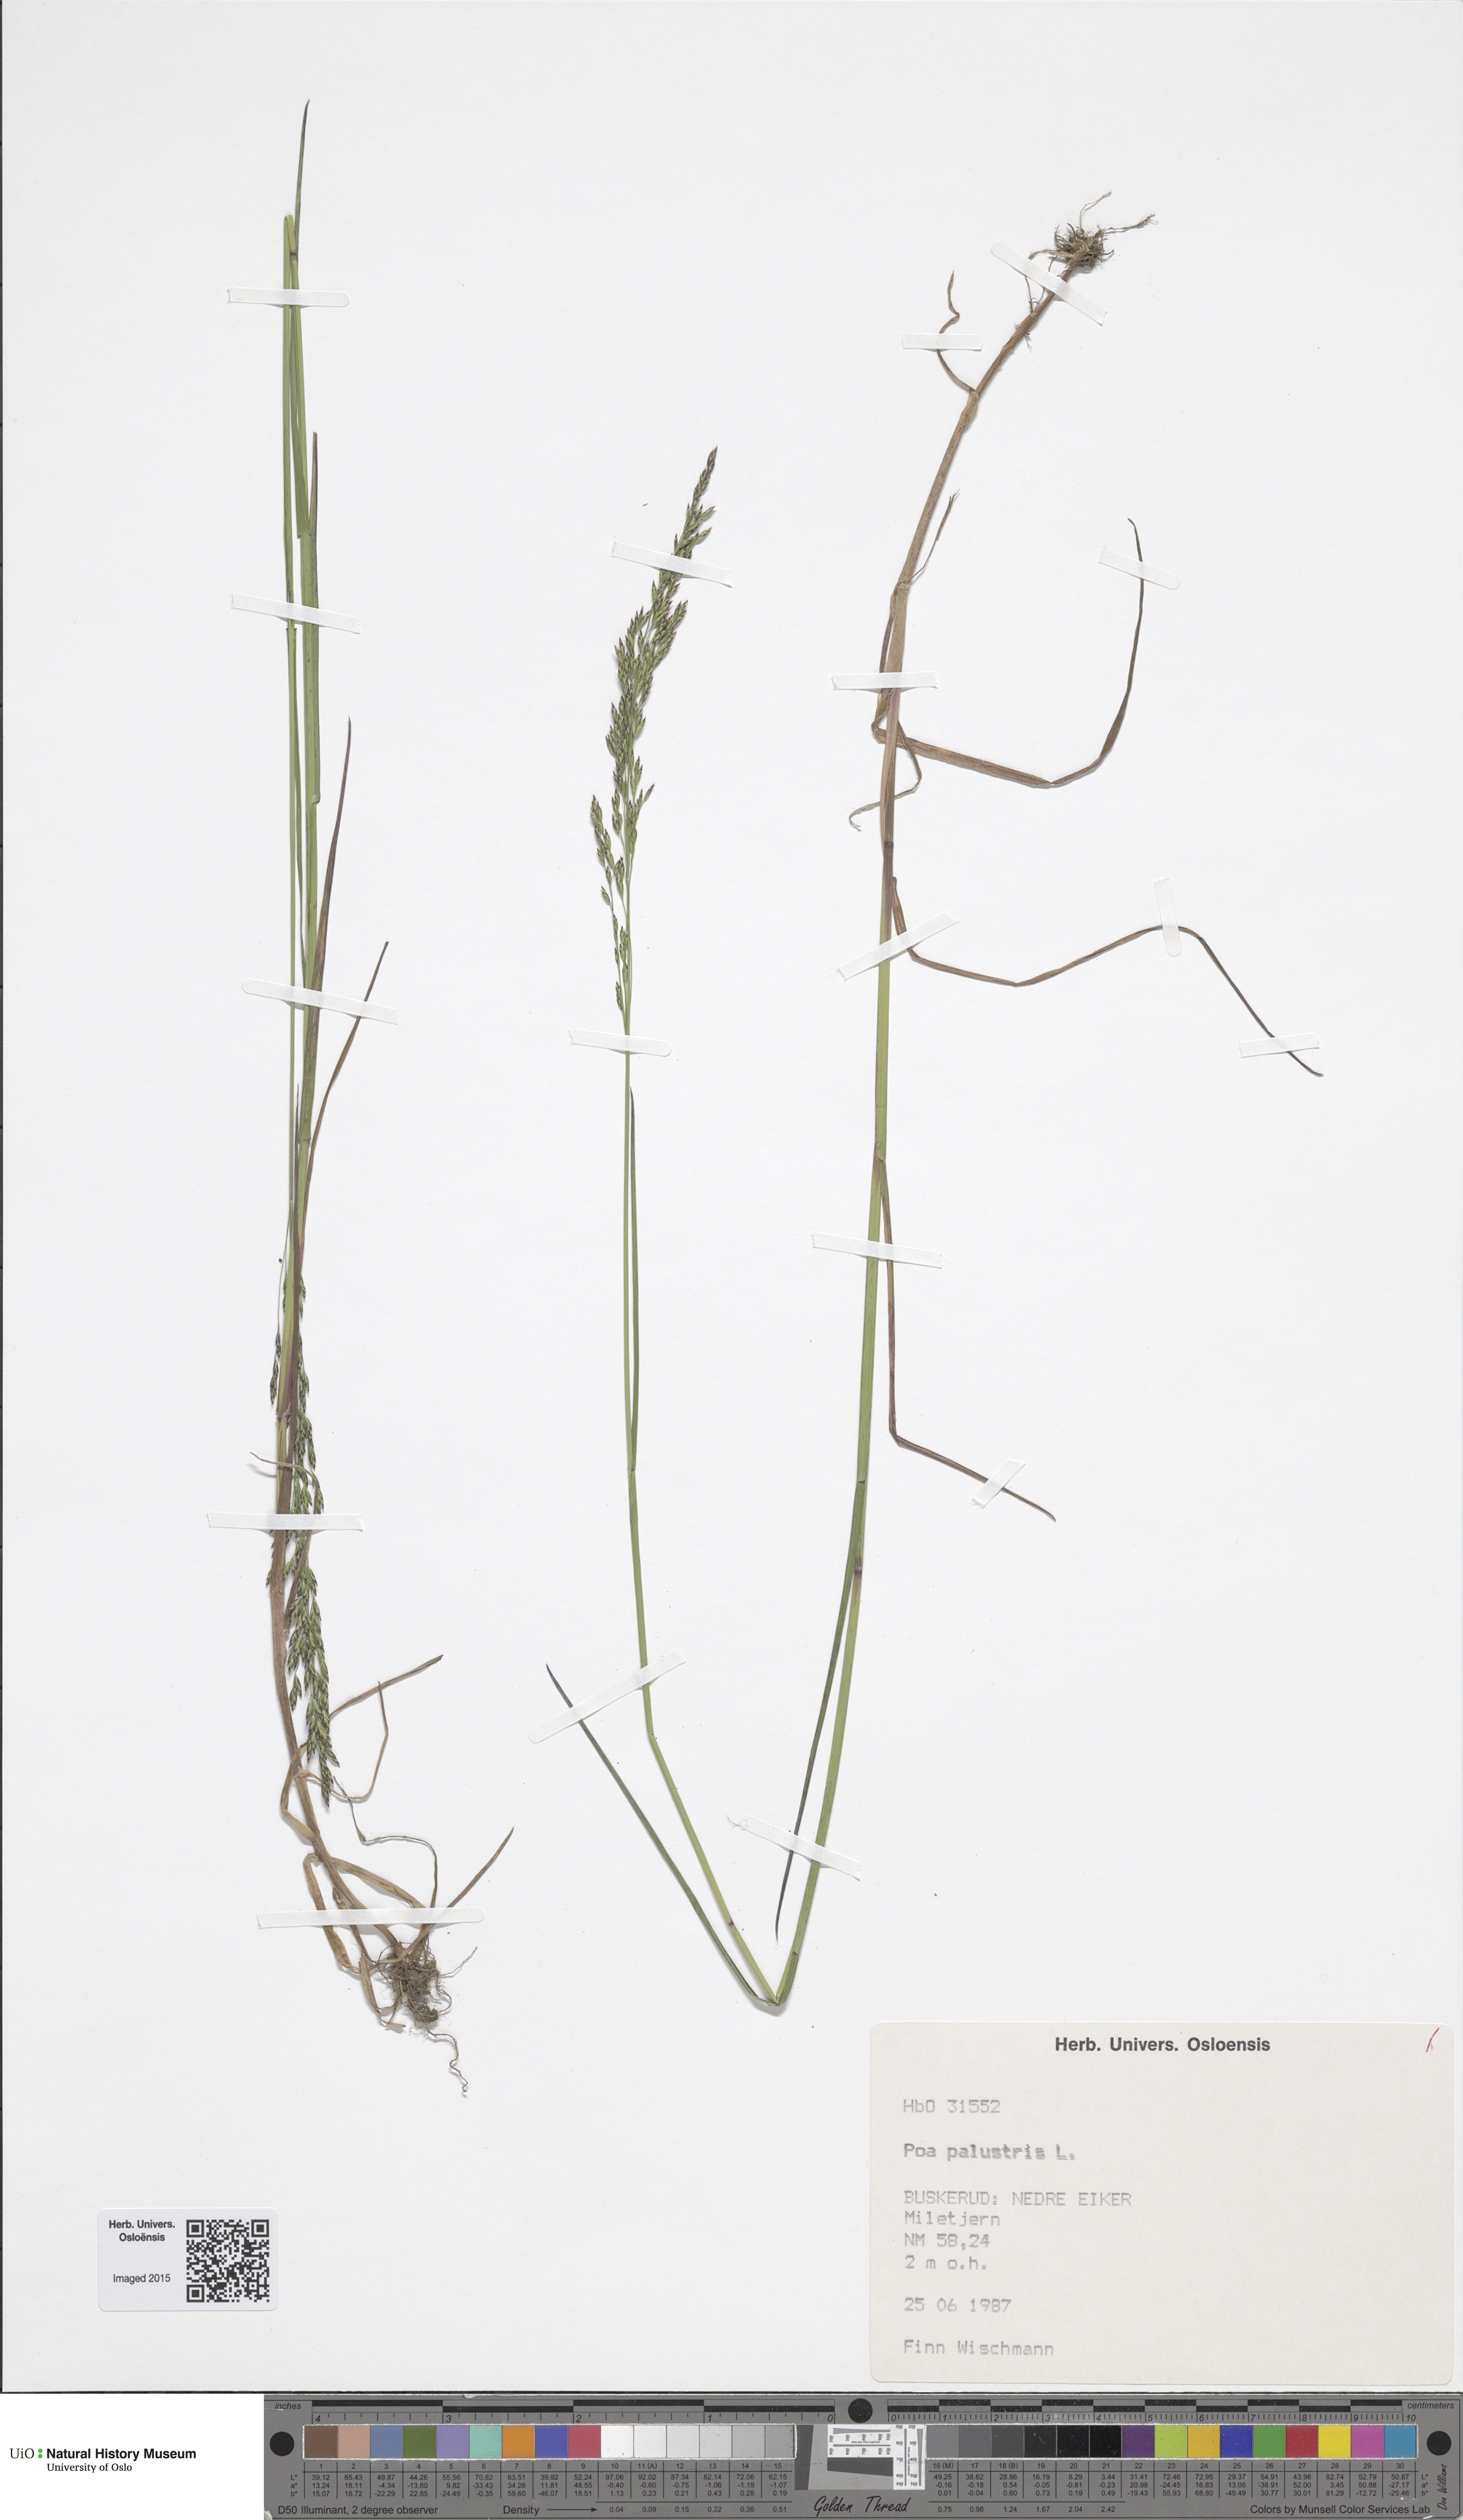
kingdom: Plantae
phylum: Tracheophyta
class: Liliopsida
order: Poales
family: Poaceae
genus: Poa
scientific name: Poa palustris
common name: Swamp meadow-grass
